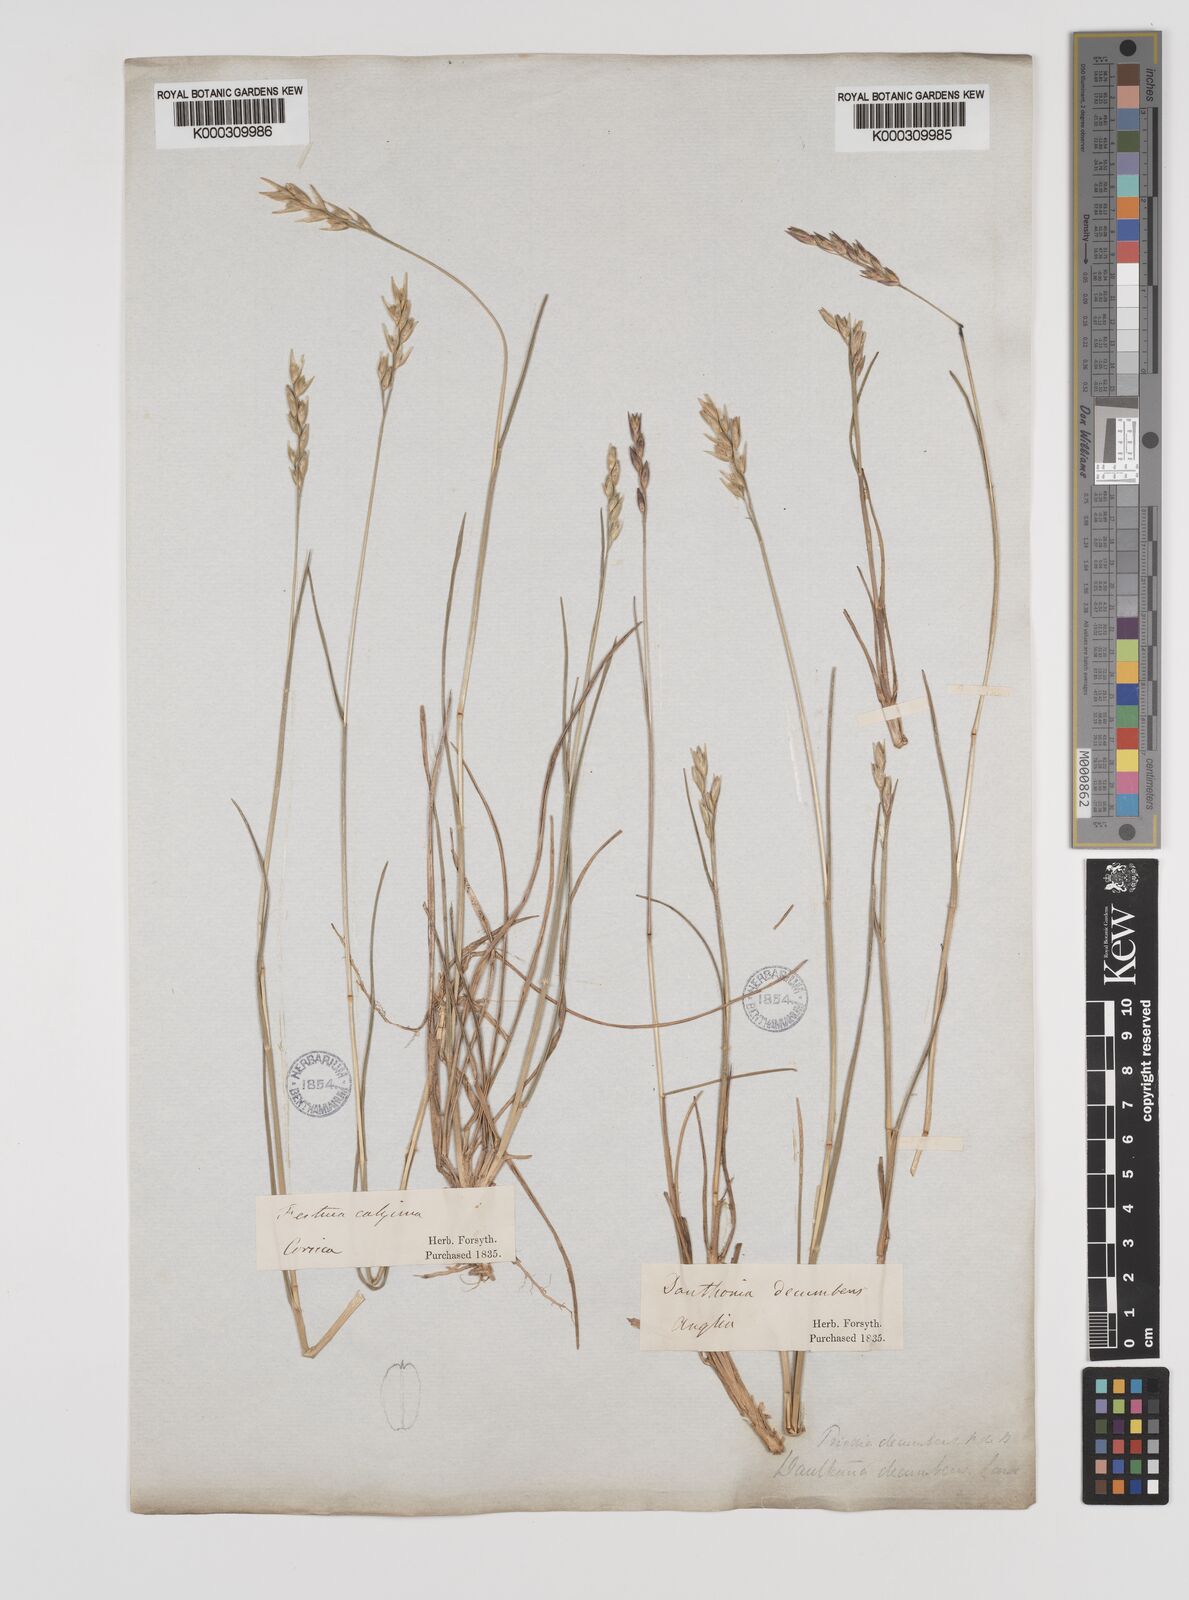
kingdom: Plantae
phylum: Tracheophyta
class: Liliopsida
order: Poales
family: Poaceae
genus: Danthonia
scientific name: Danthonia decumbens
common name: Common heathgrass
